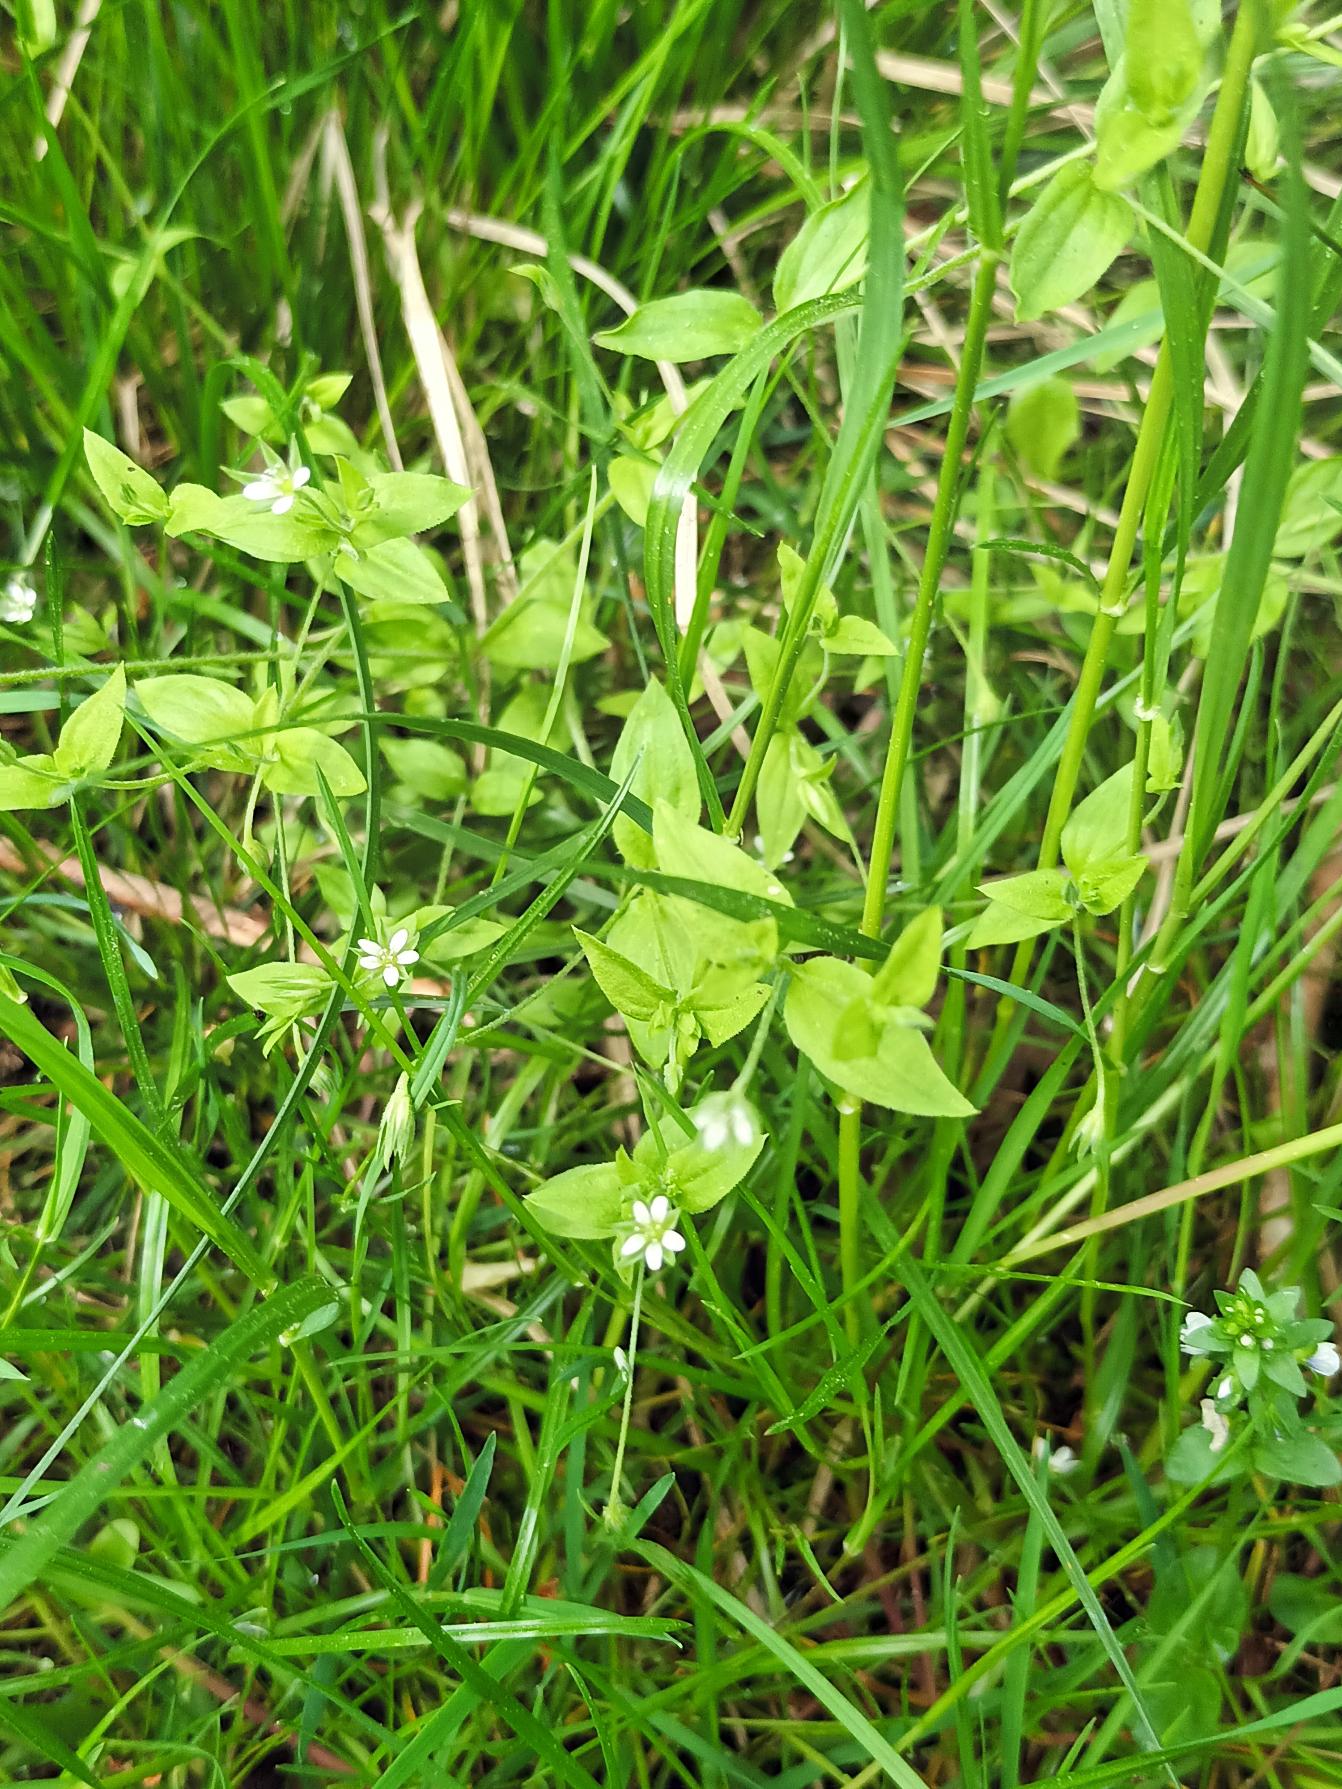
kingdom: Plantae
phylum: Tracheophyta
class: Magnoliopsida
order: Caryophyllales
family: Caryophyllaceae
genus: Moehringia
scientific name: Moehringia trinervia
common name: Skovarve
